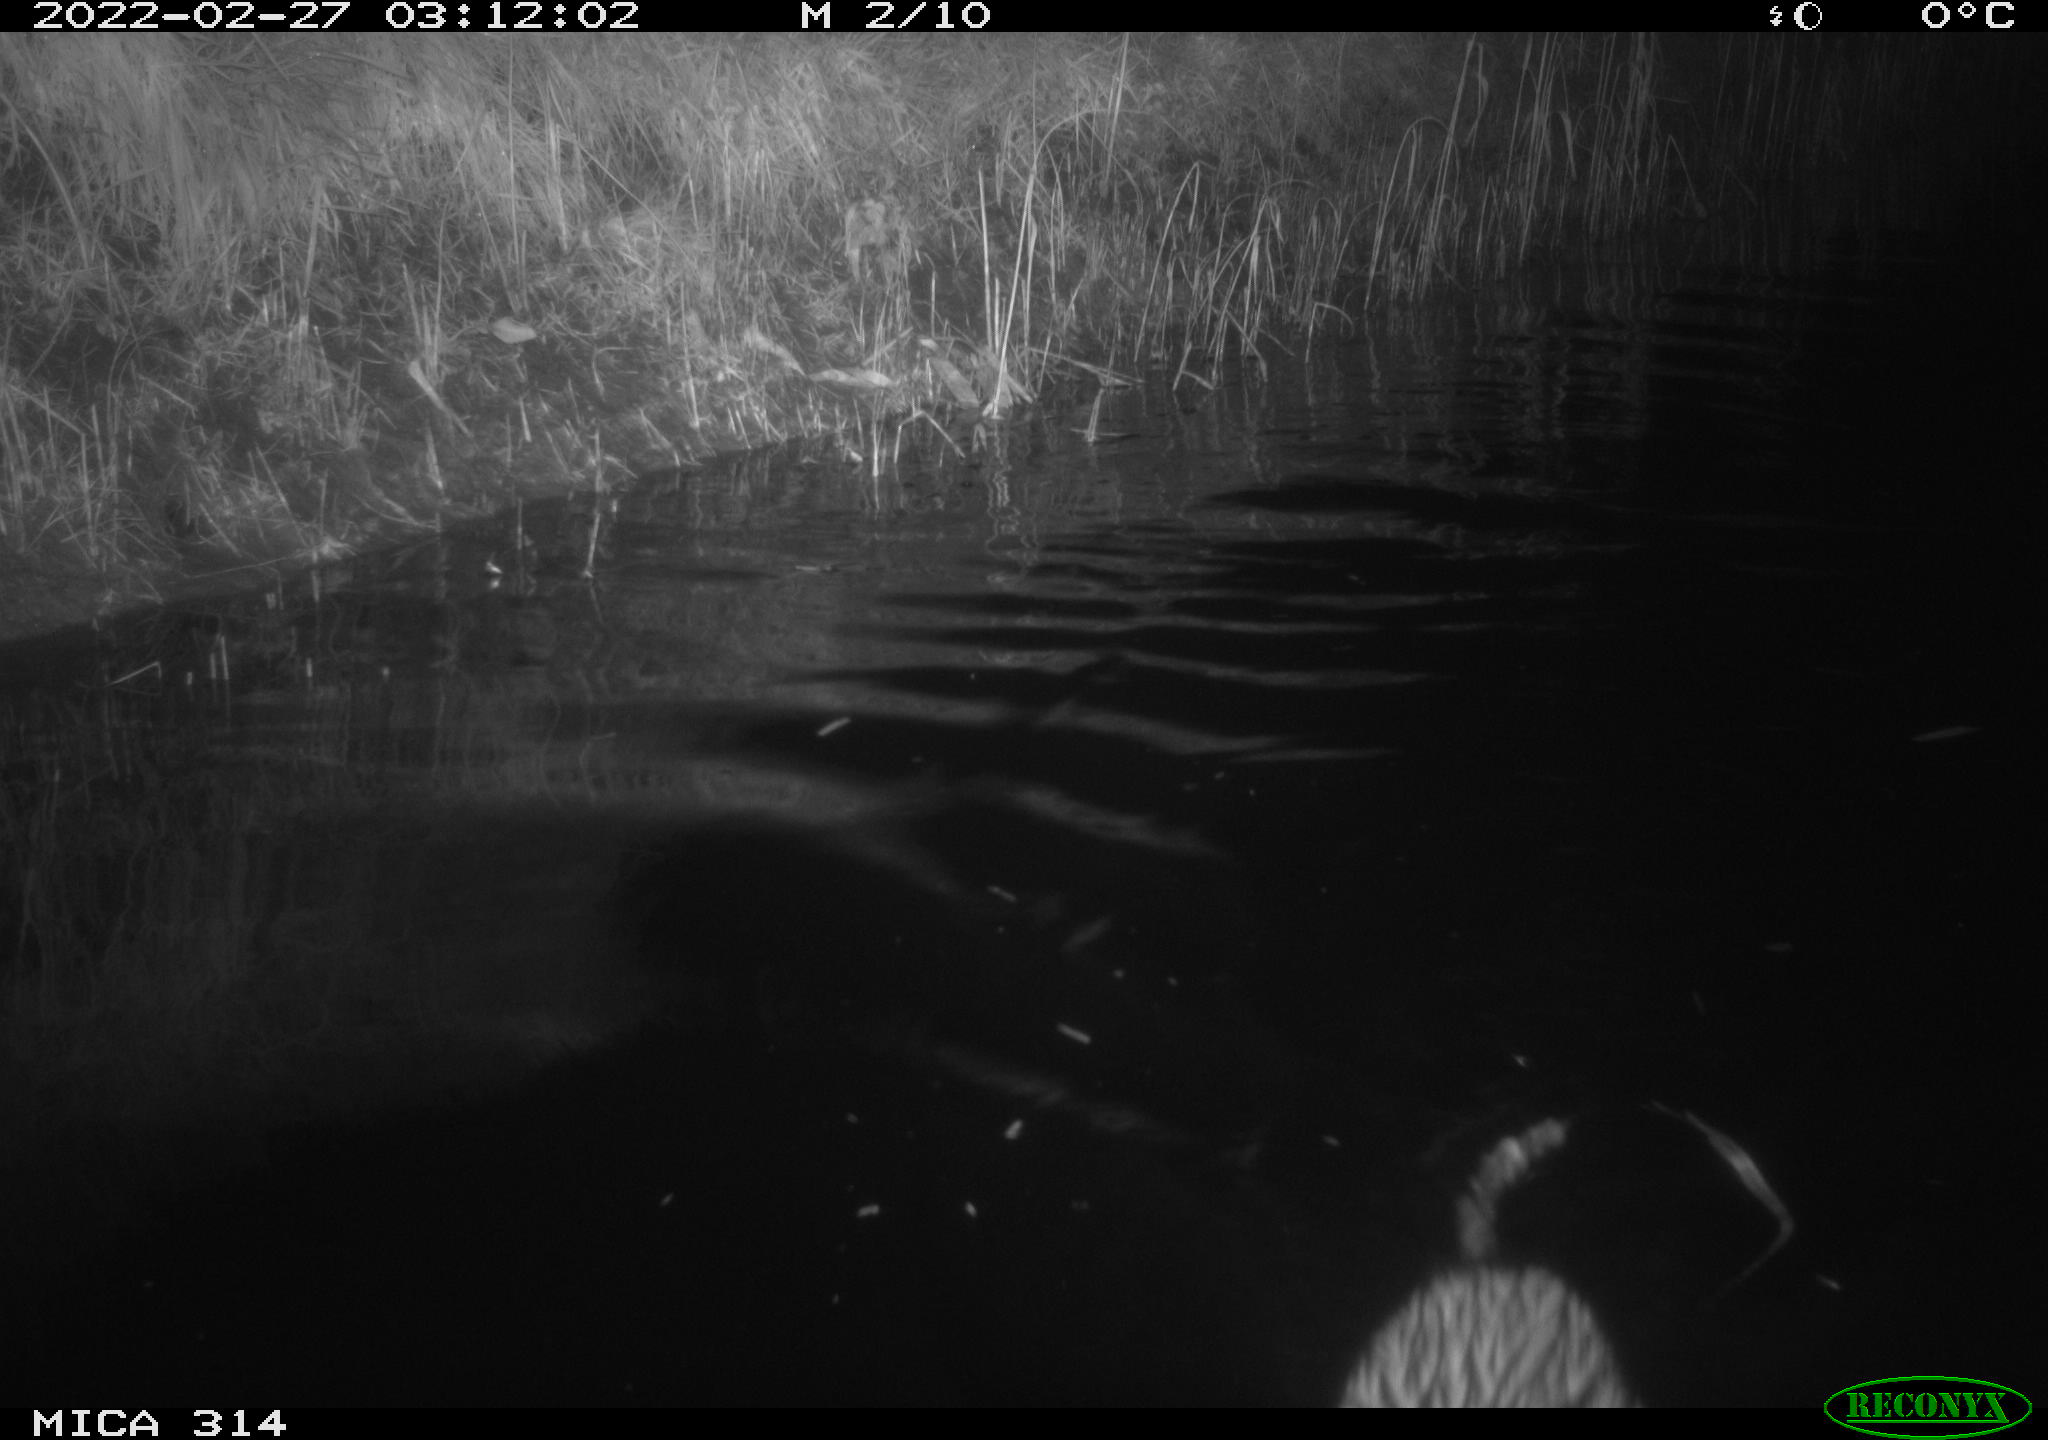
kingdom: Animalia
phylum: Chordata
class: Mammalia
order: Rodentia
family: Cricetidae
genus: Ondatra
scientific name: Ondatra zibethicus
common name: Muskrat
